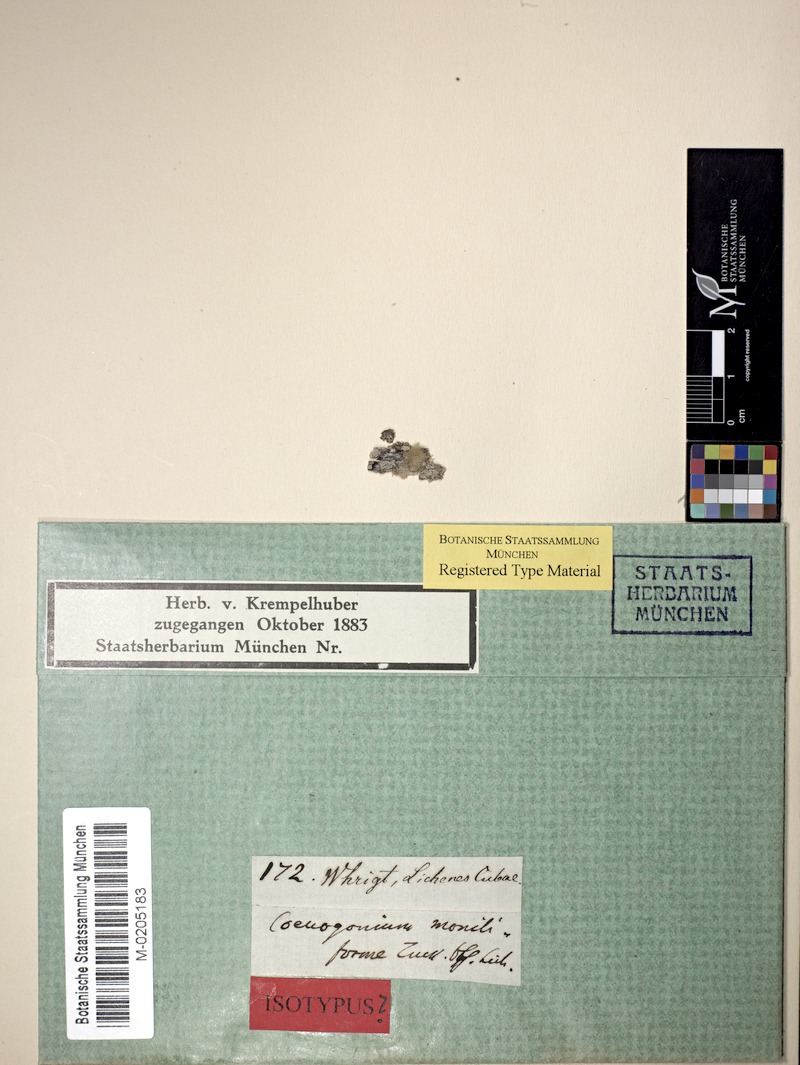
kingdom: Fungi
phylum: Ascomycota
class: Lecanoromycetes
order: Ostropales
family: Coenogoniaceae
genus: Coenogonium
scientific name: Coenogonium moniliforme
